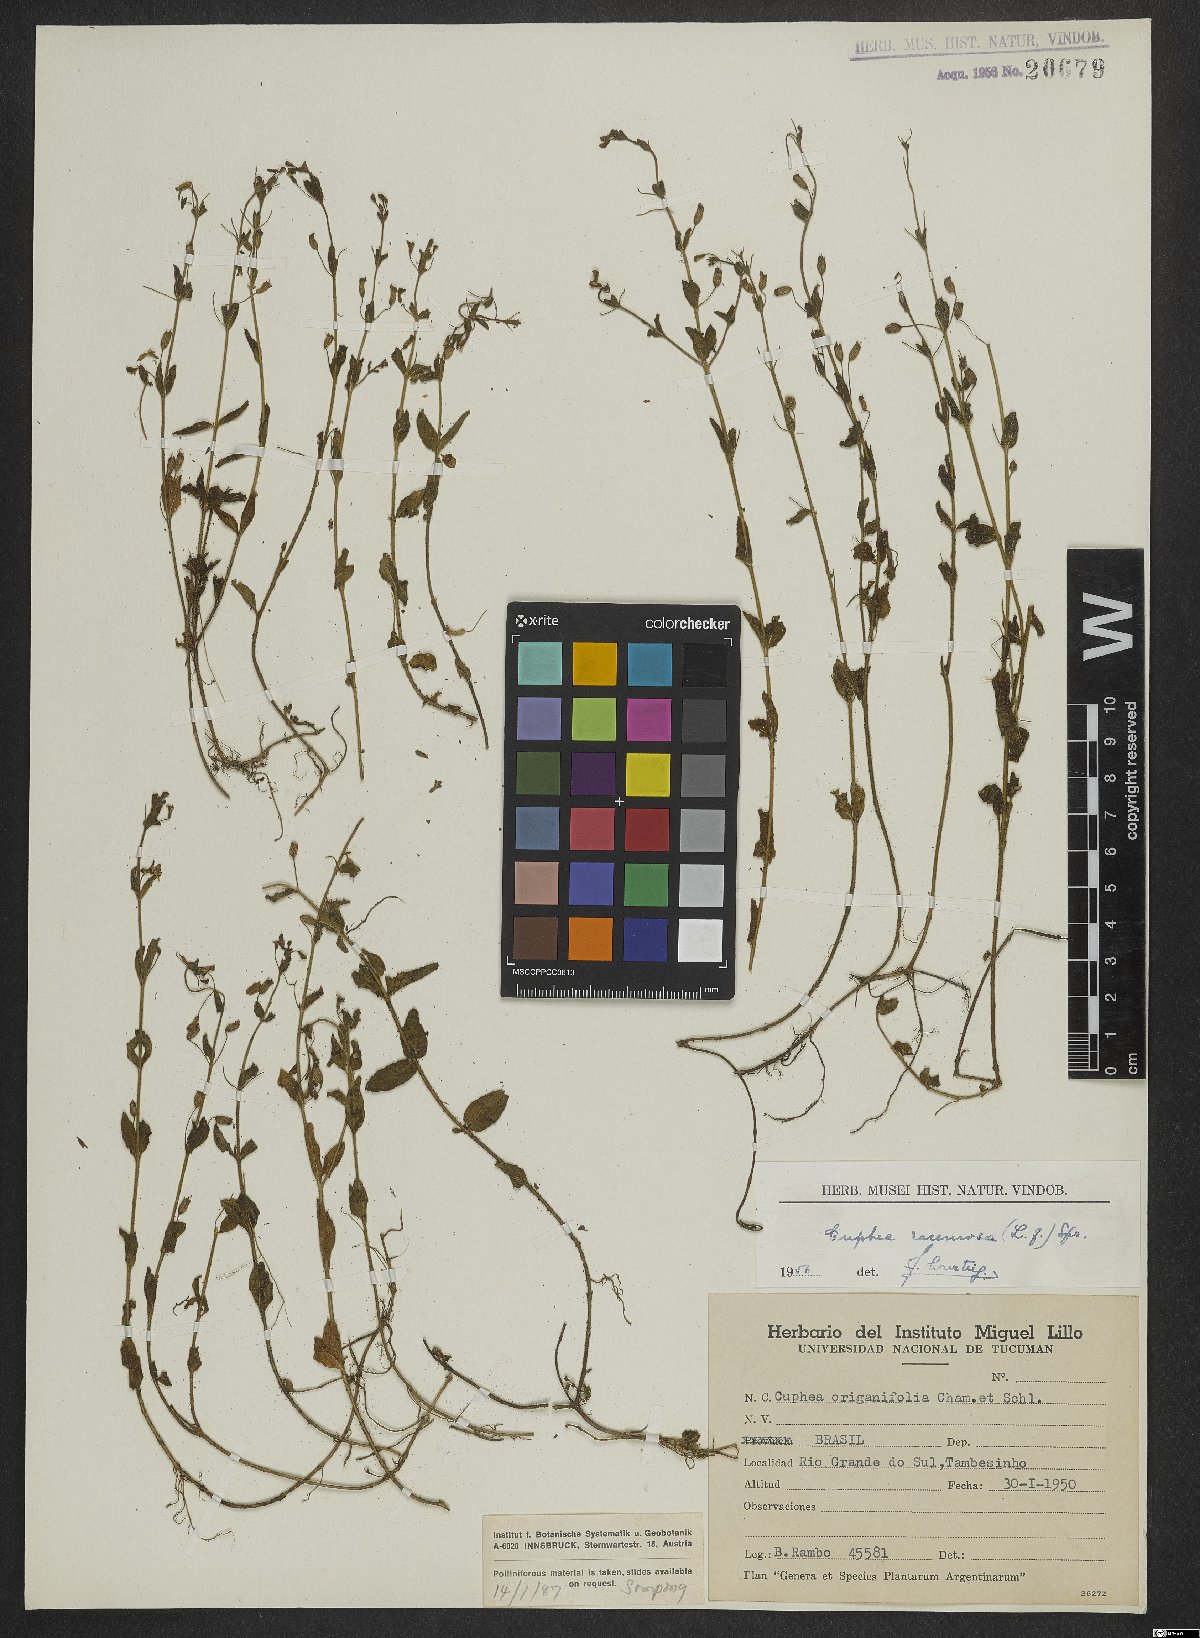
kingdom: Plantae
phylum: Tracheophyta
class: Magnoliopsida
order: Myrtales
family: Lythraceae
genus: Cuphea
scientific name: Cuphea racemosa
